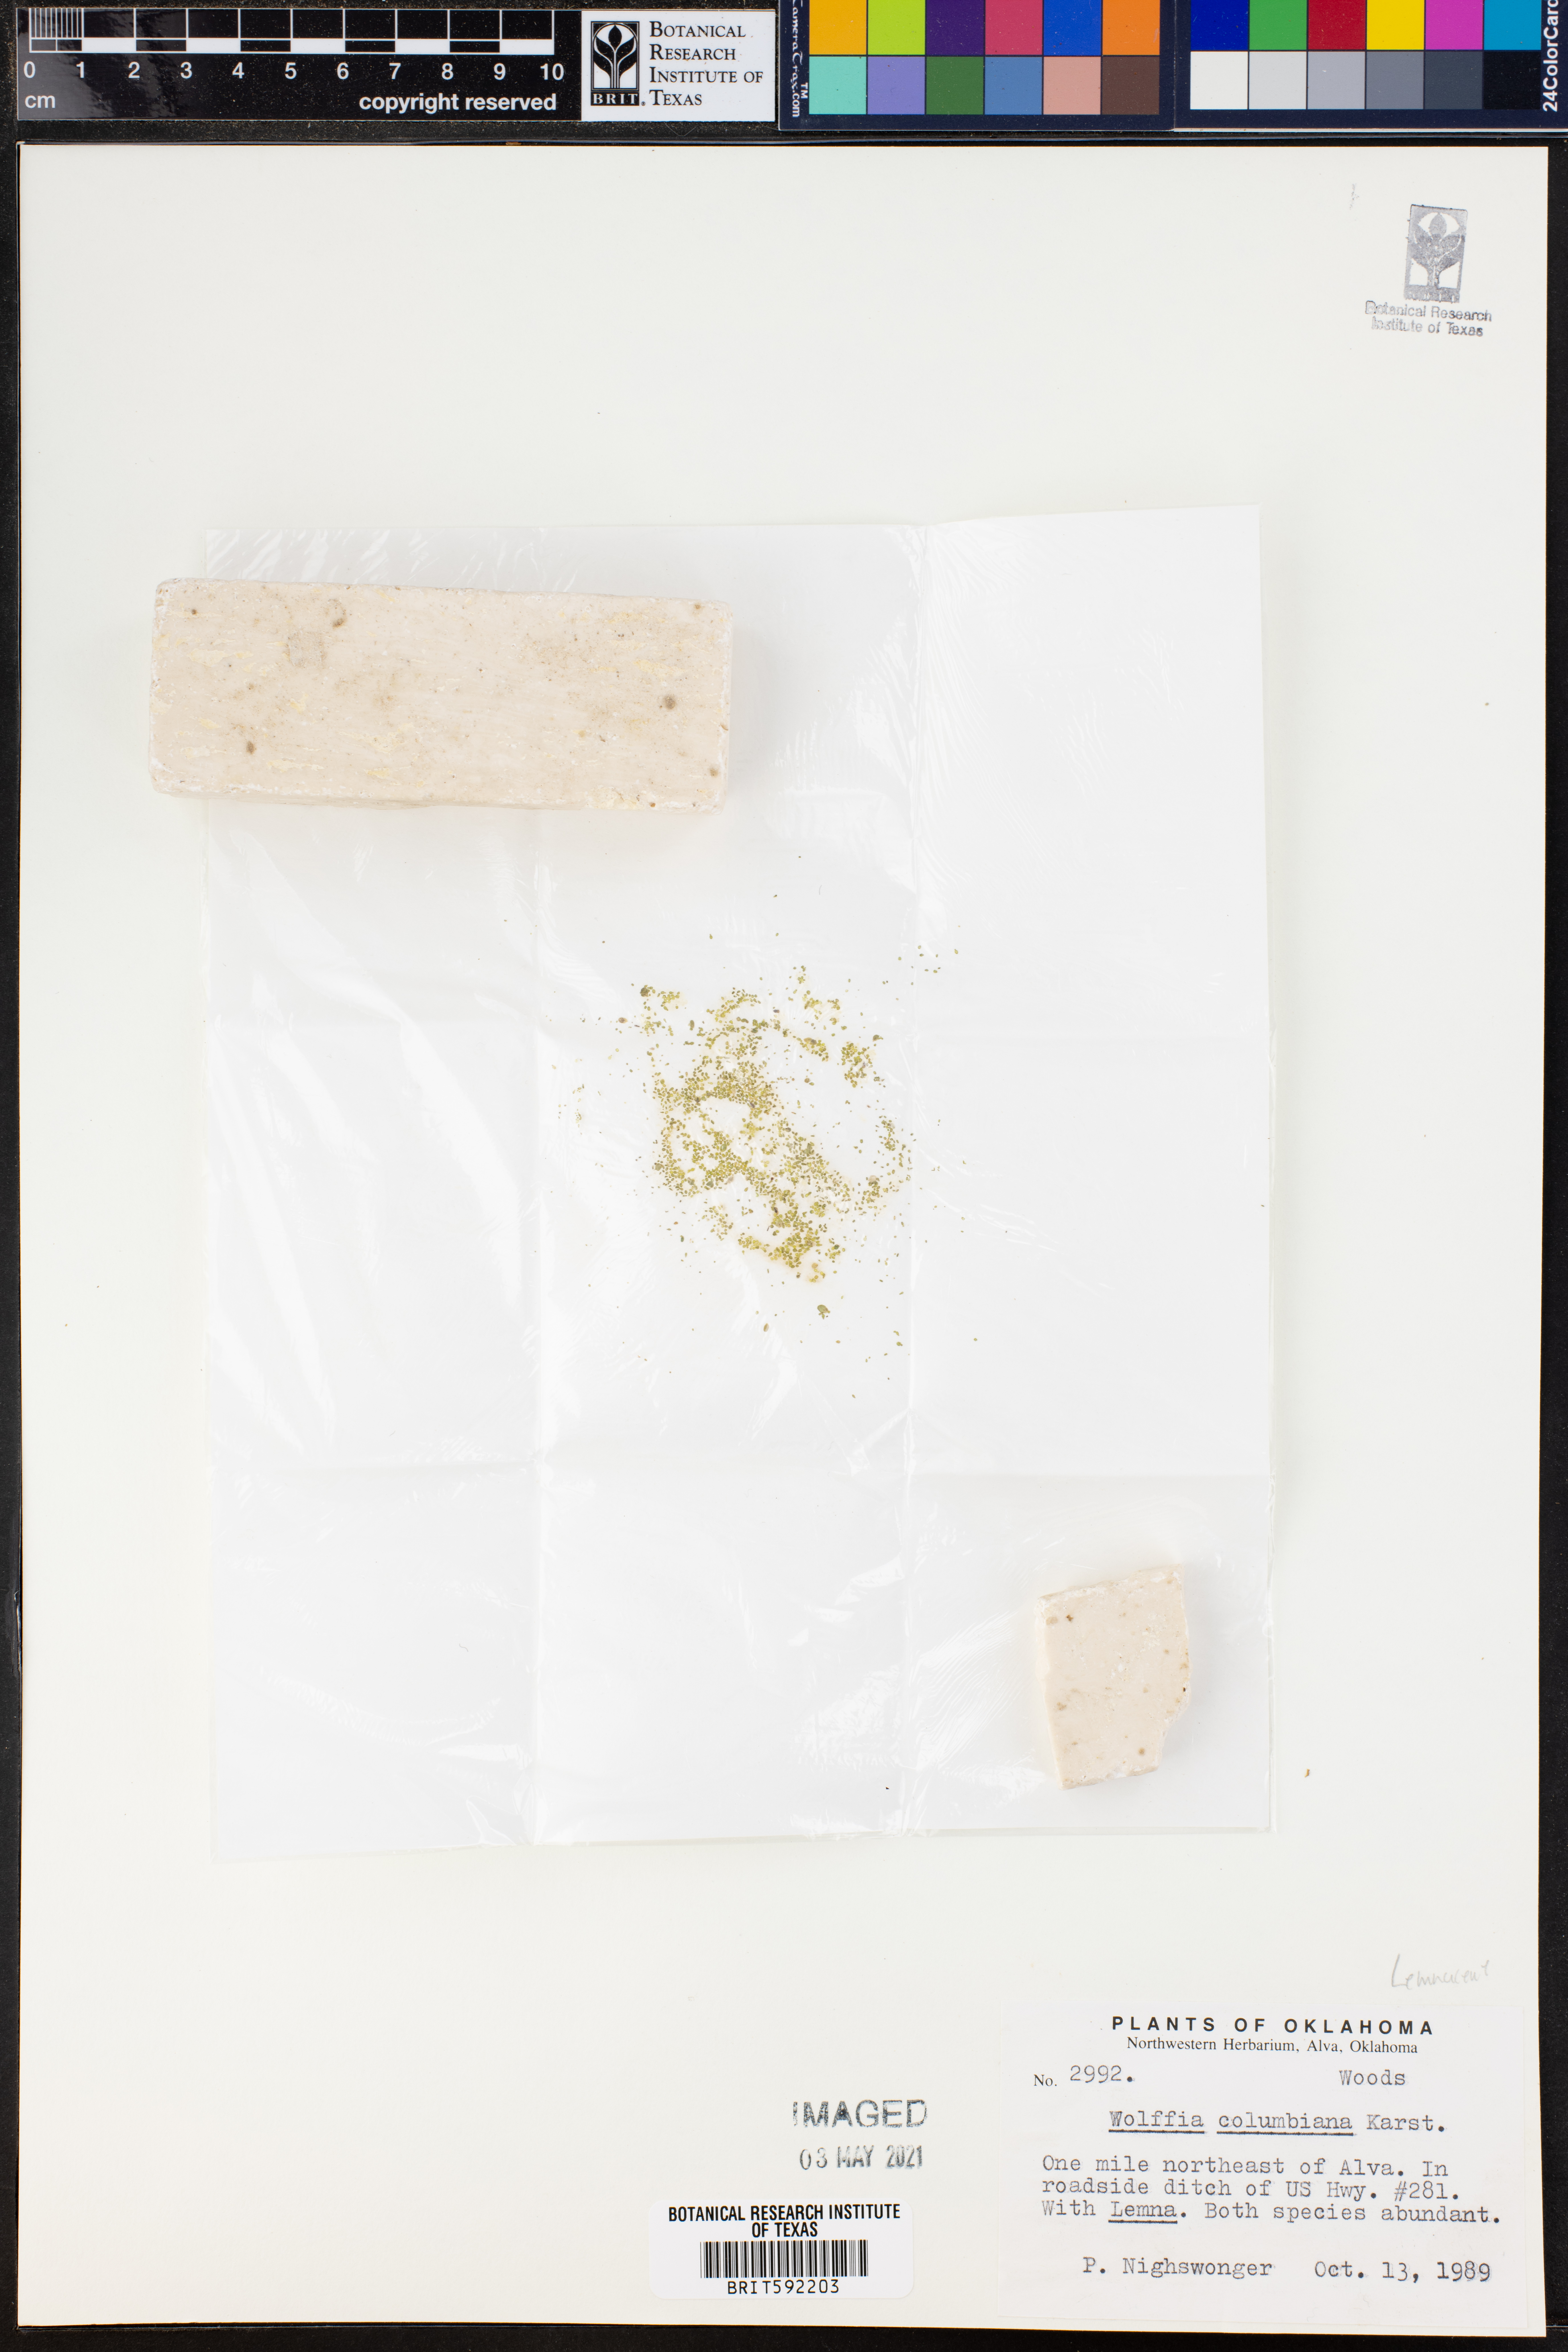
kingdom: Plantae
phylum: Tracheophyta
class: Liliopsida
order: Alismatales
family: Araceae
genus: Wolffia
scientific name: Wolffia columbiana
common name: Columbia watermeal
